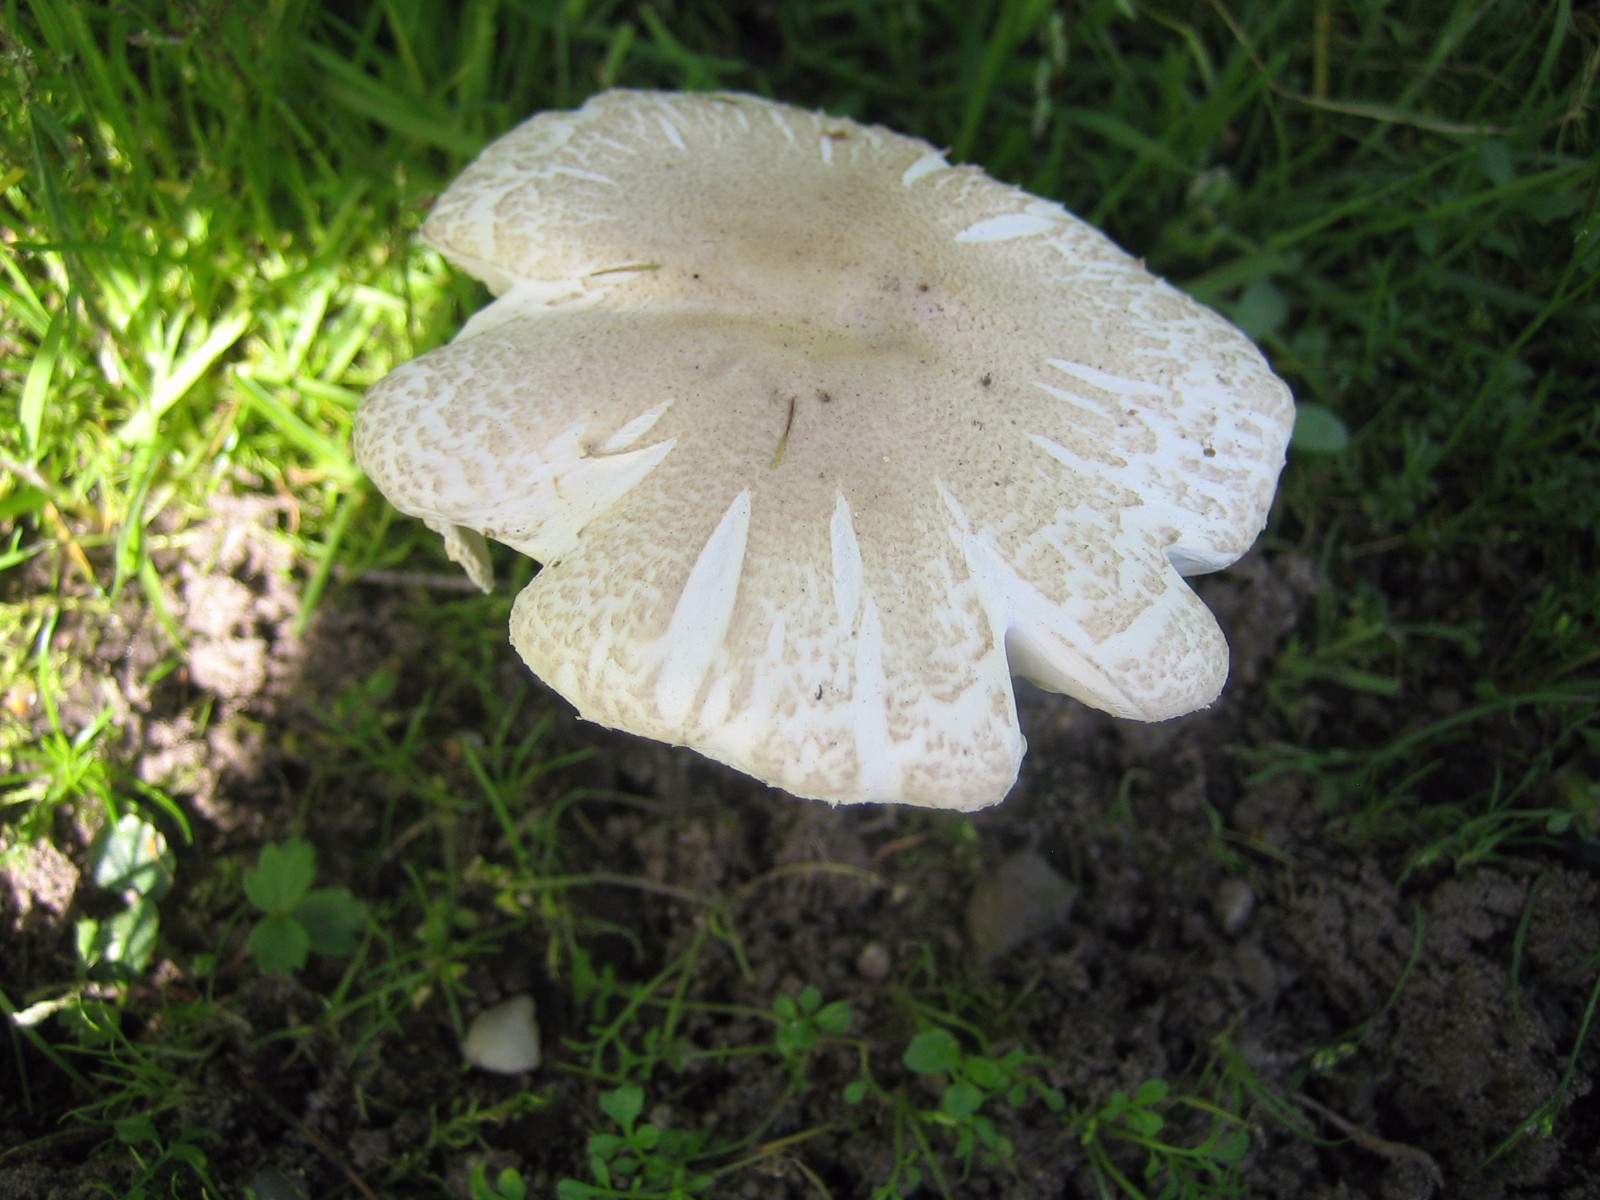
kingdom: Fungi
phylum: Basidiomycota
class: Agaricomycetes
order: Agaricales
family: Agaricaceae
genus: Leucoagaricus
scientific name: Leucoagaricus leucothites
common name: rosabladet silkehat
